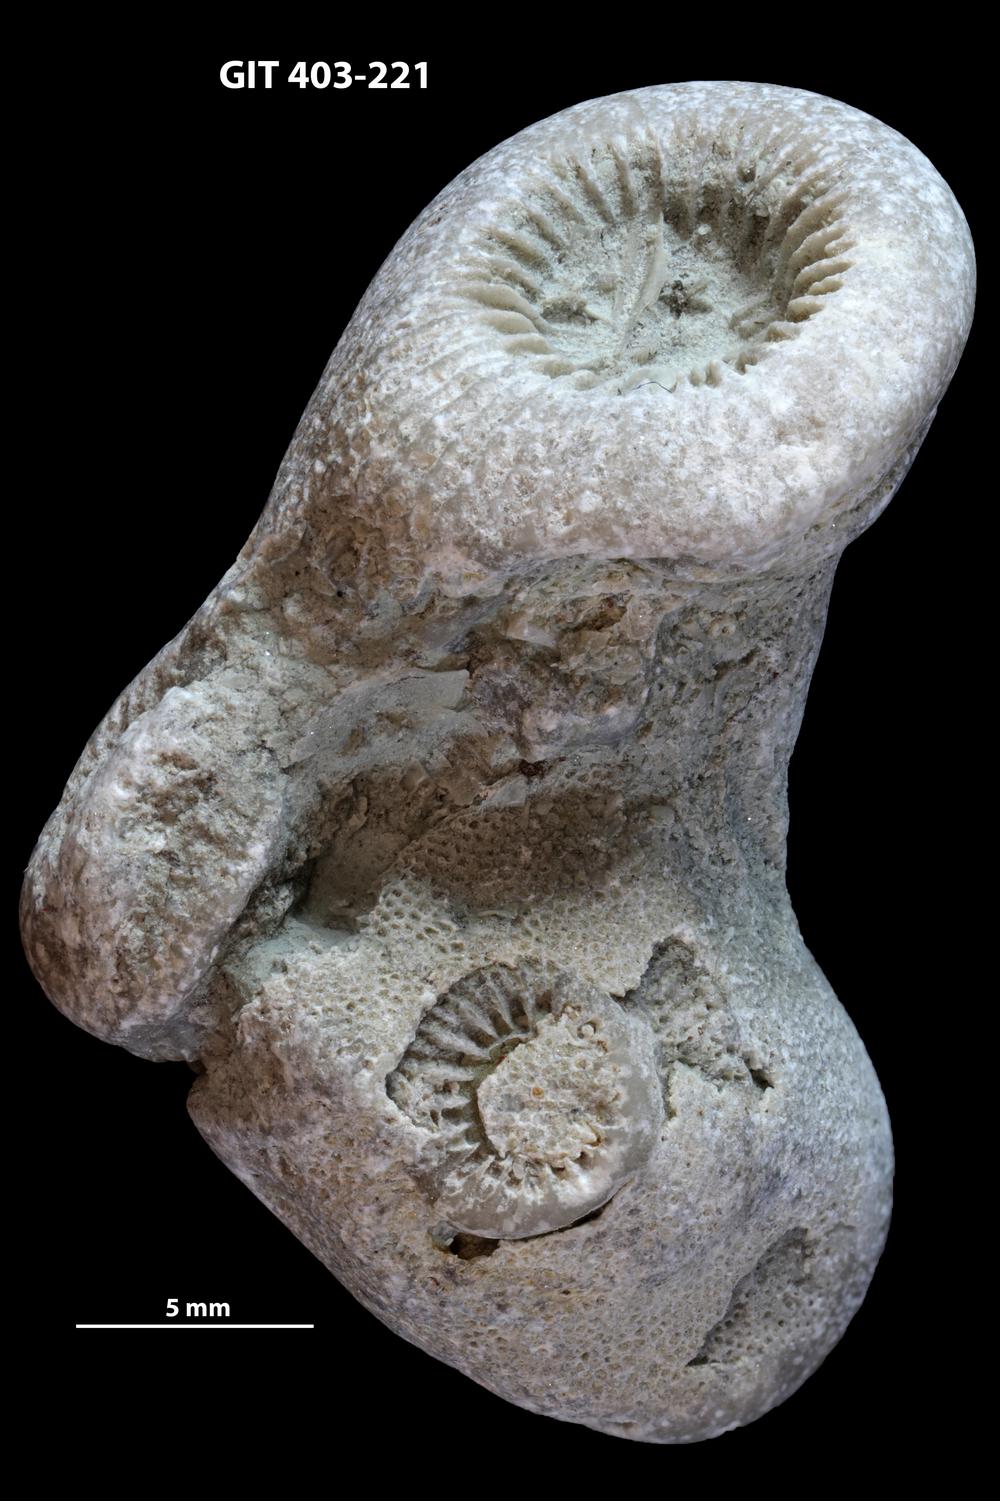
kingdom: Animalia
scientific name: Animalia
